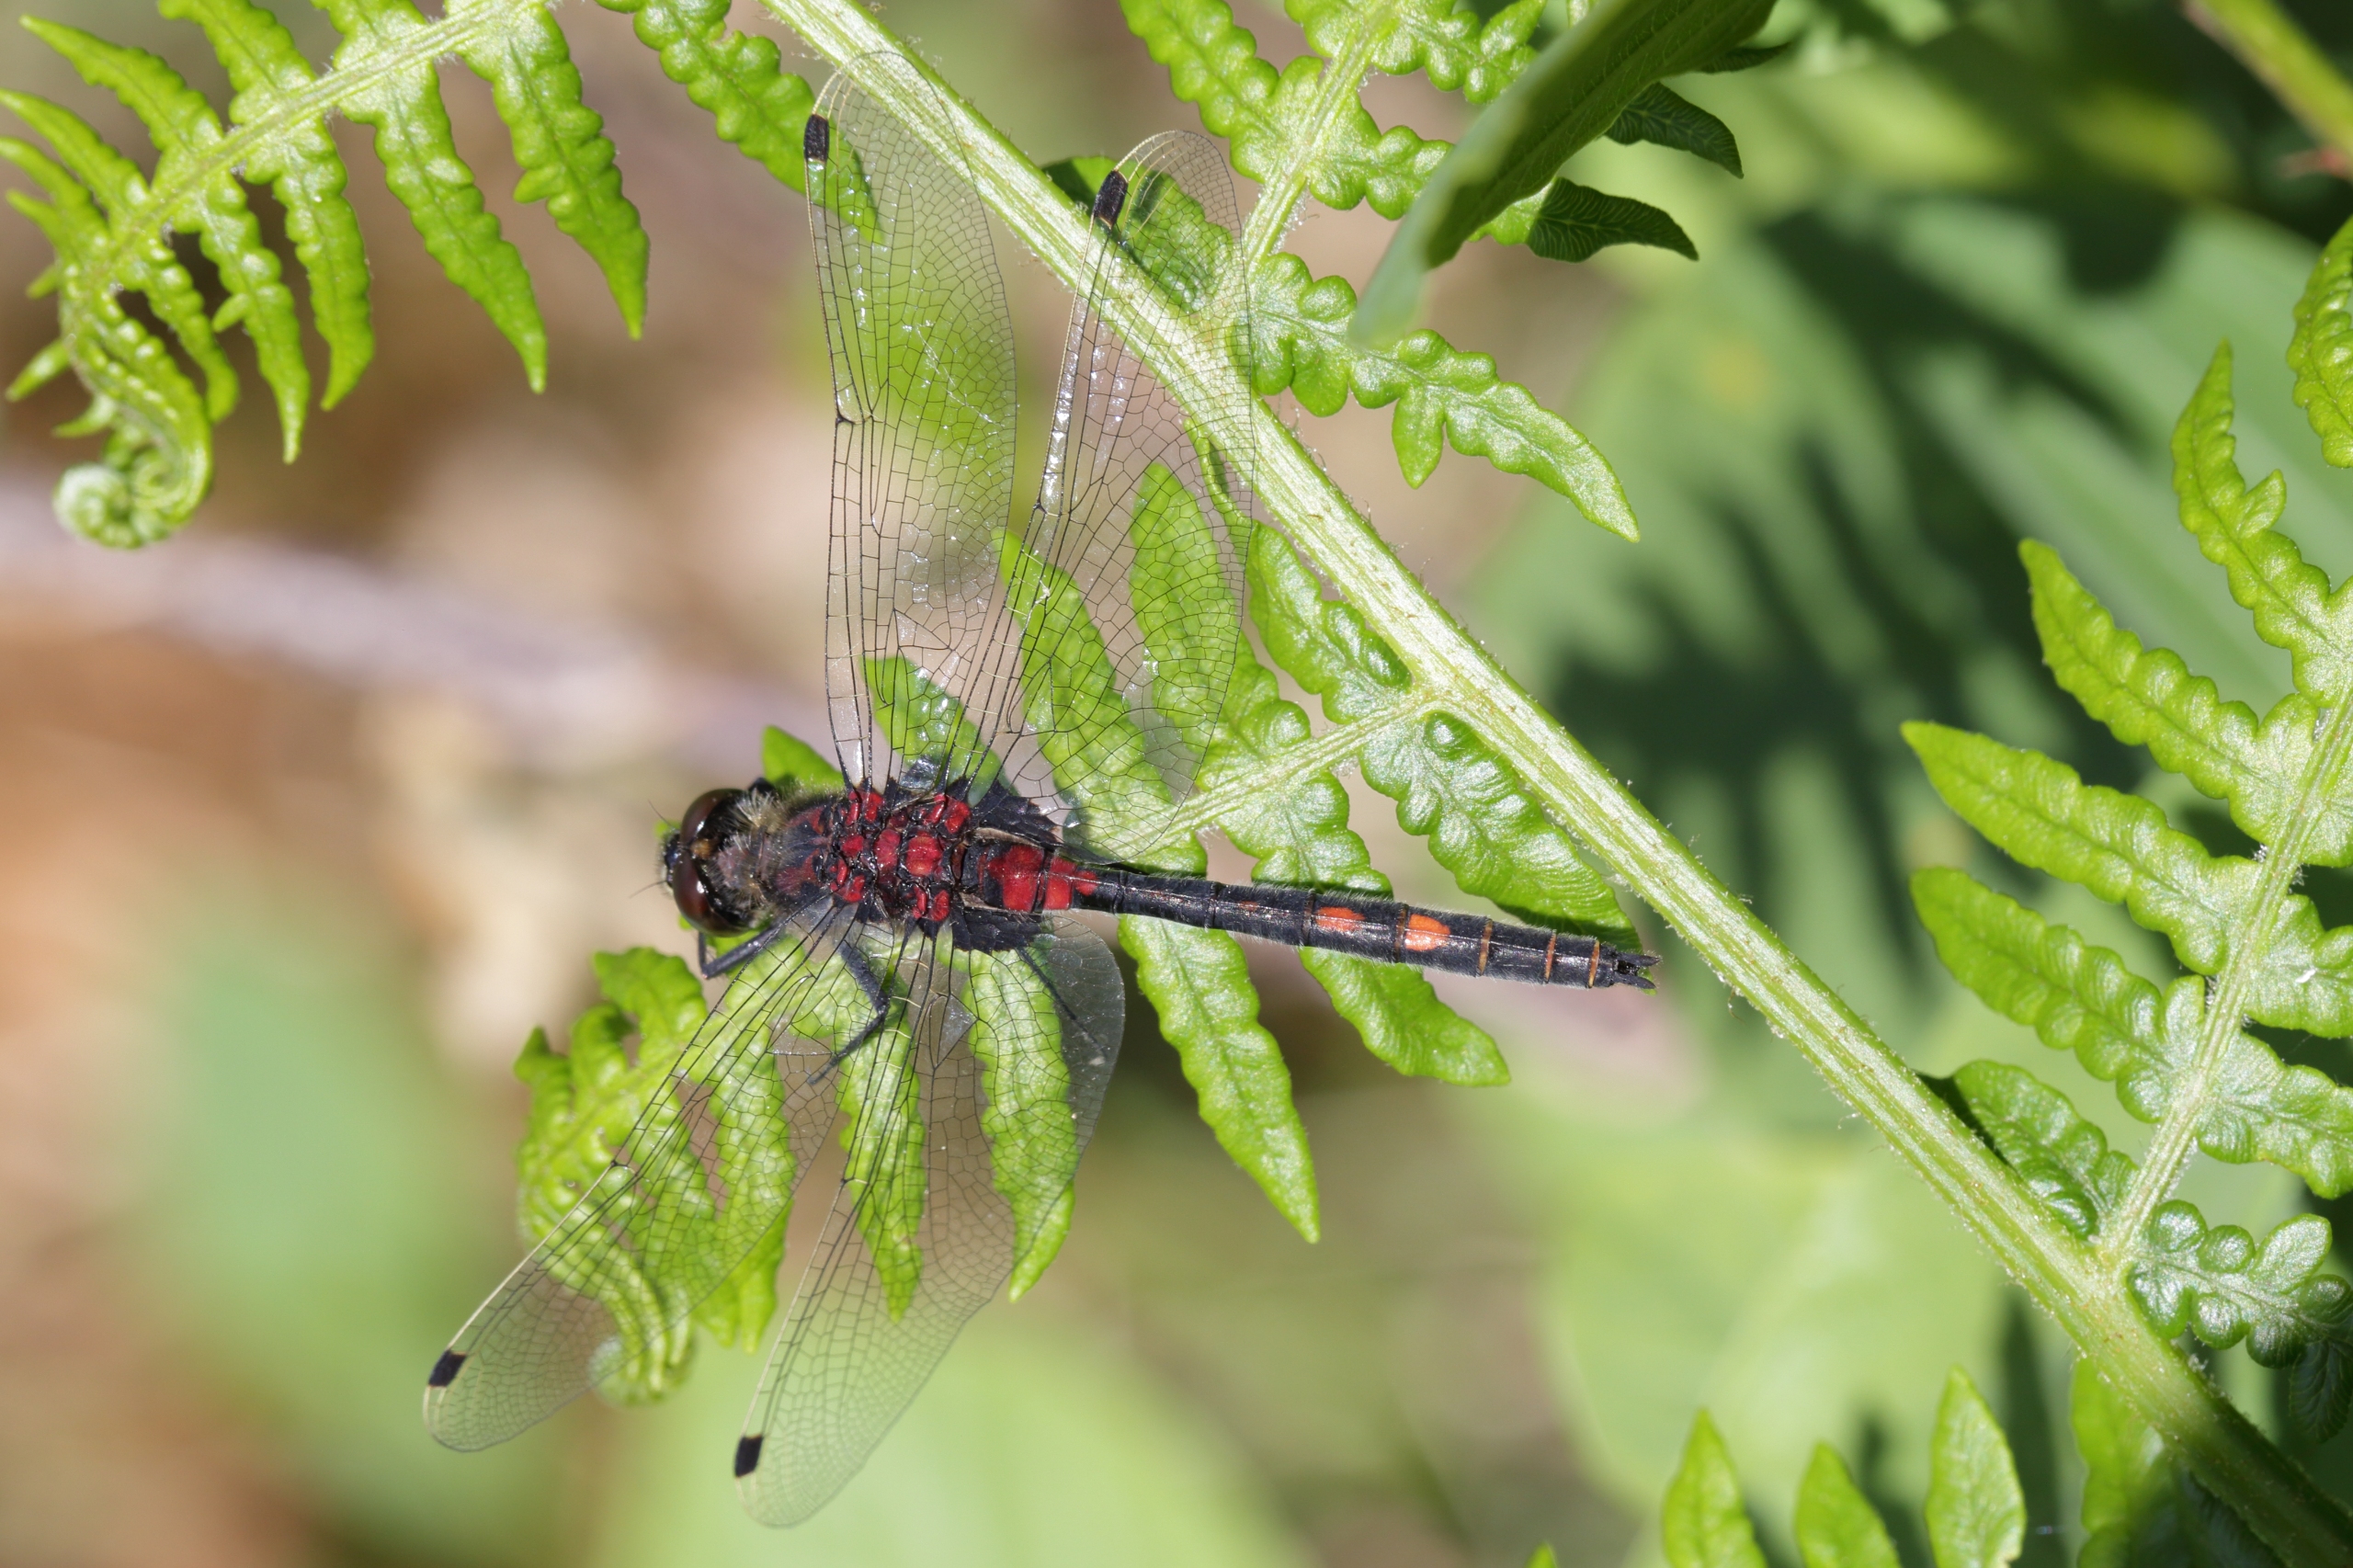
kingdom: Animalia
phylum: Arthropoda
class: Insecta
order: Odonata
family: Libellulidae
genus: Leucorrhinia
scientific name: Leucorrhinia dubia
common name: Lille kærguldsmed
